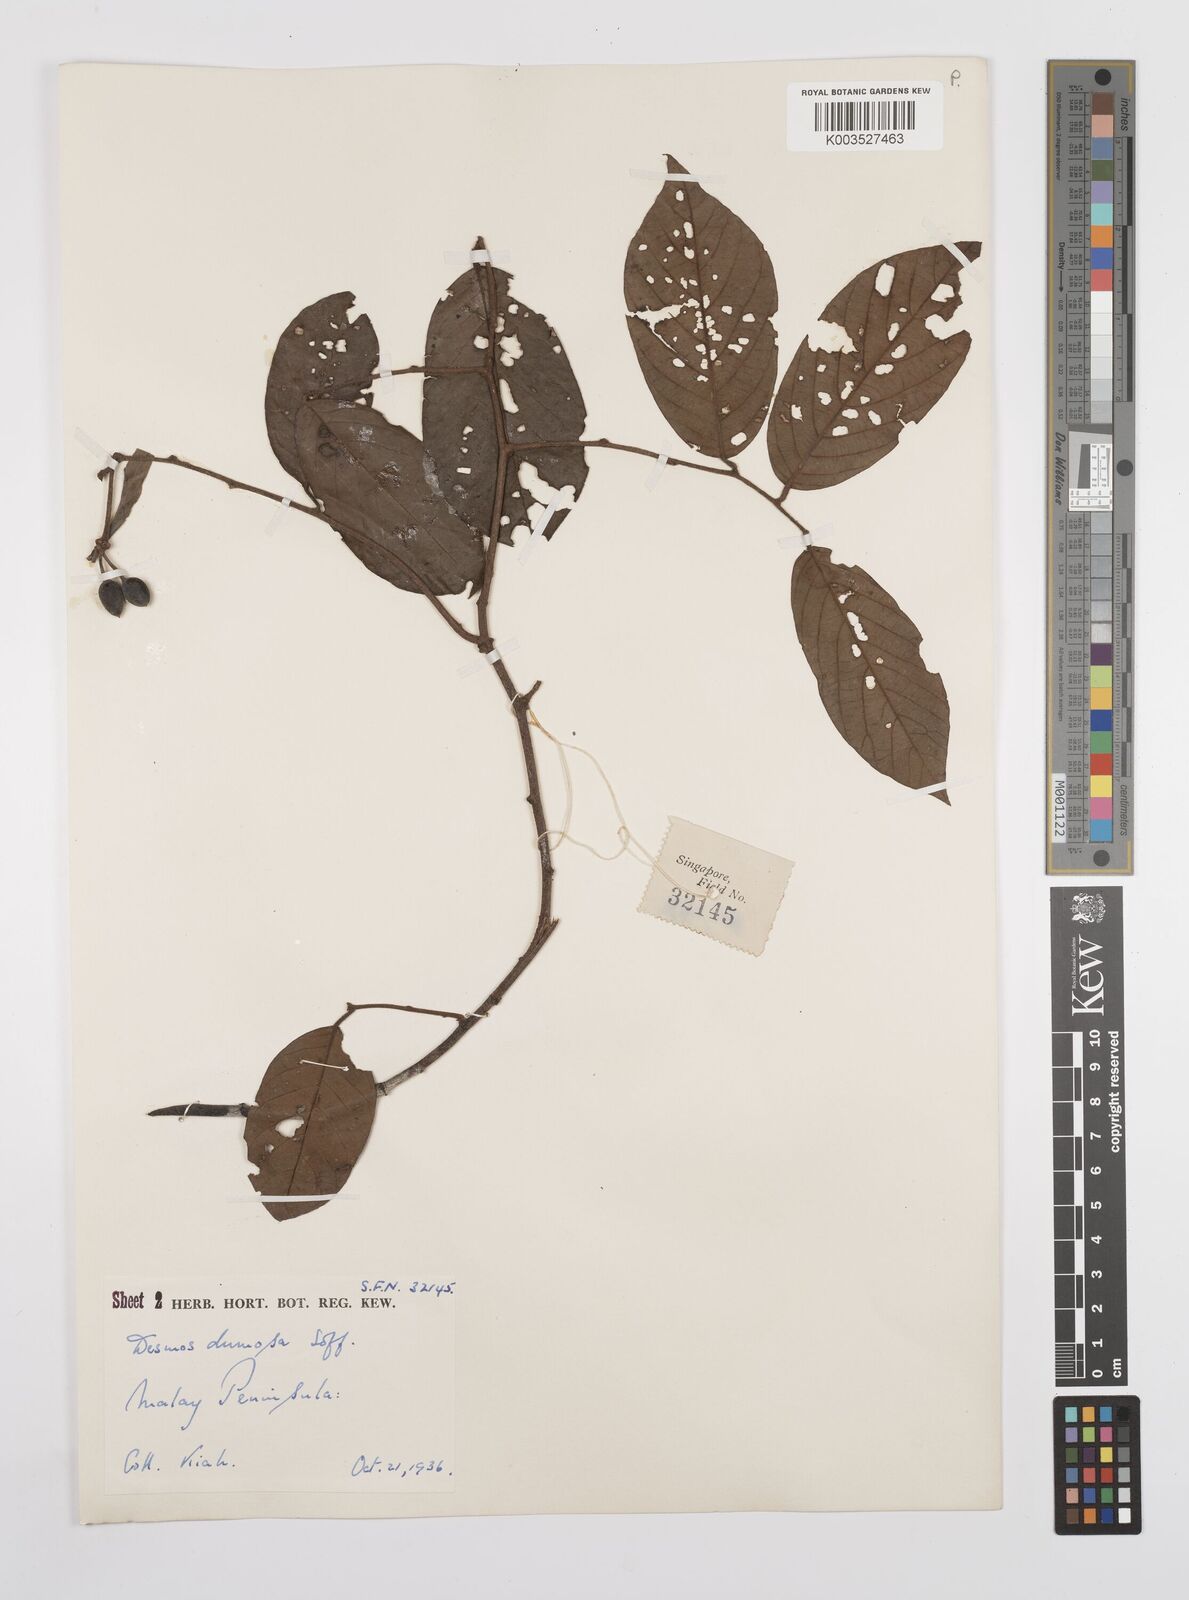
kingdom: Plantae
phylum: Tracheophyta
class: Magnoliopsida
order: Magnoliales
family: Annonaceae
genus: Desmos
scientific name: Desmos dumosus
